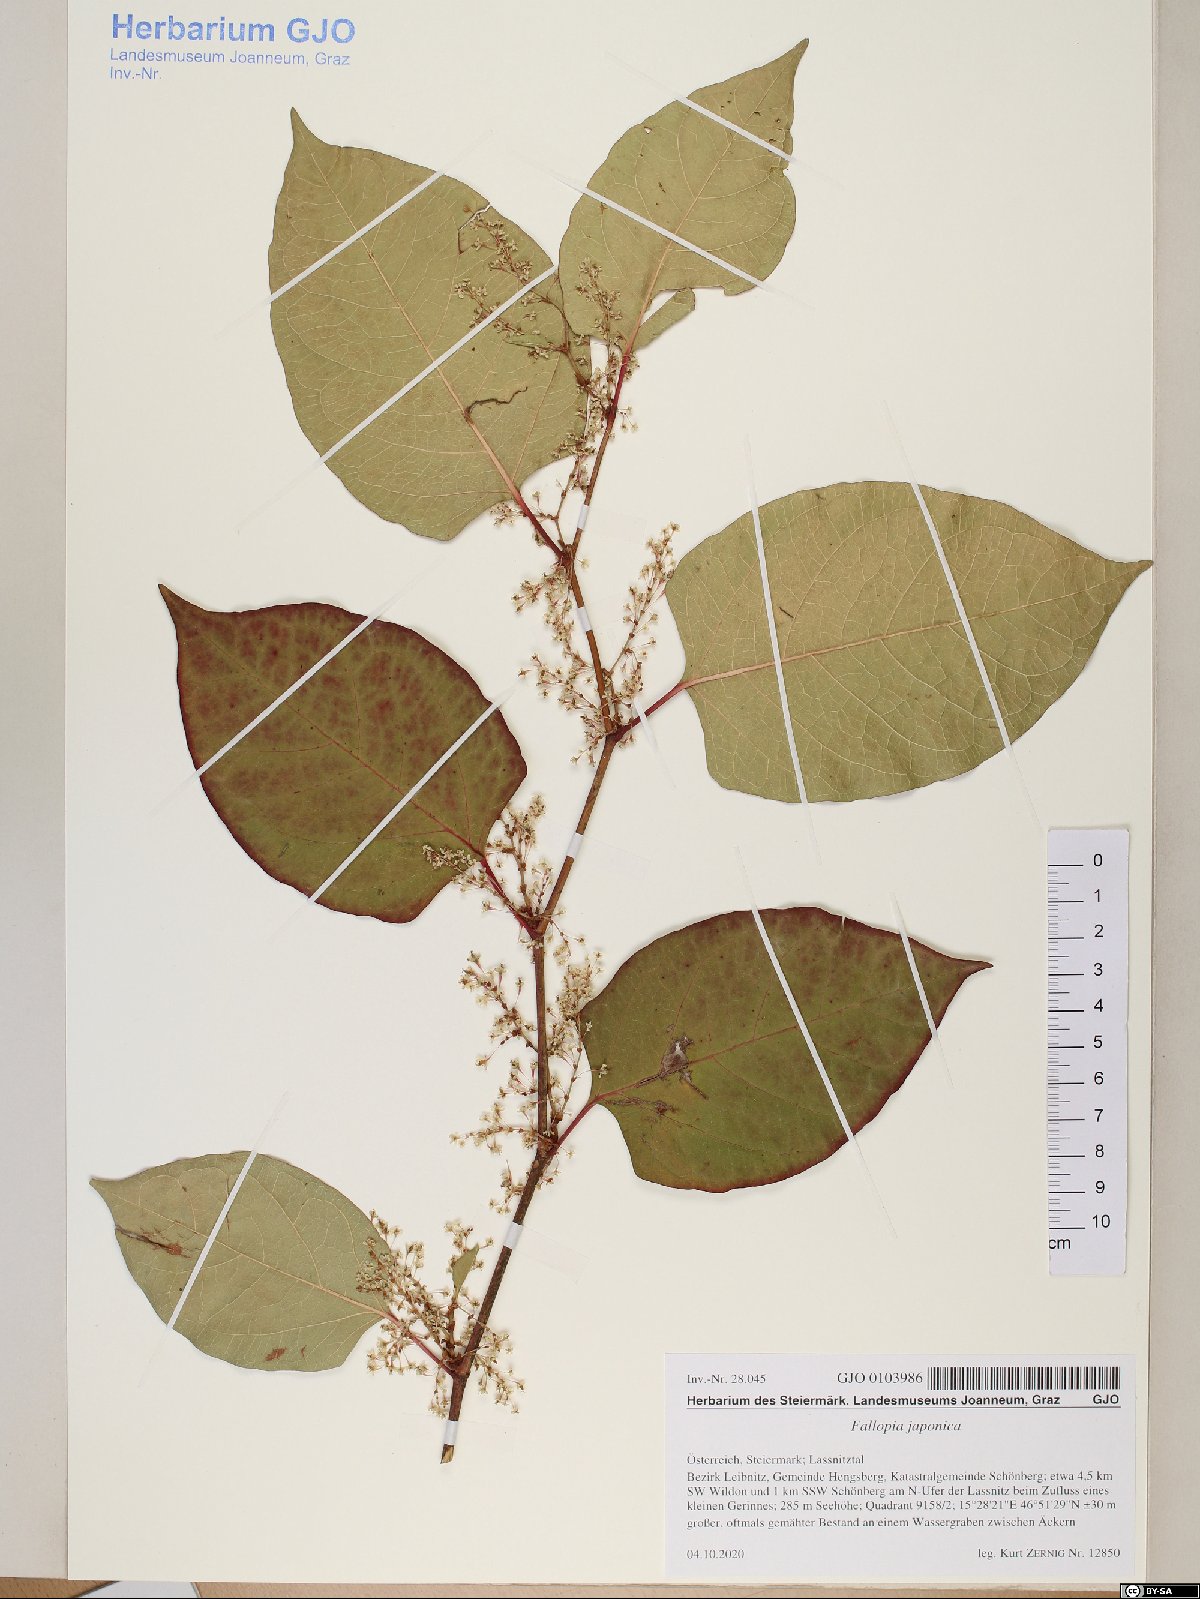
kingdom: Plantae
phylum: Tracheophyta
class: Magnoliopsida
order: Caryophyllales
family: Polygonaceae
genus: Reynoutria
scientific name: Reynoutria japonica
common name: Japanese knotweed
